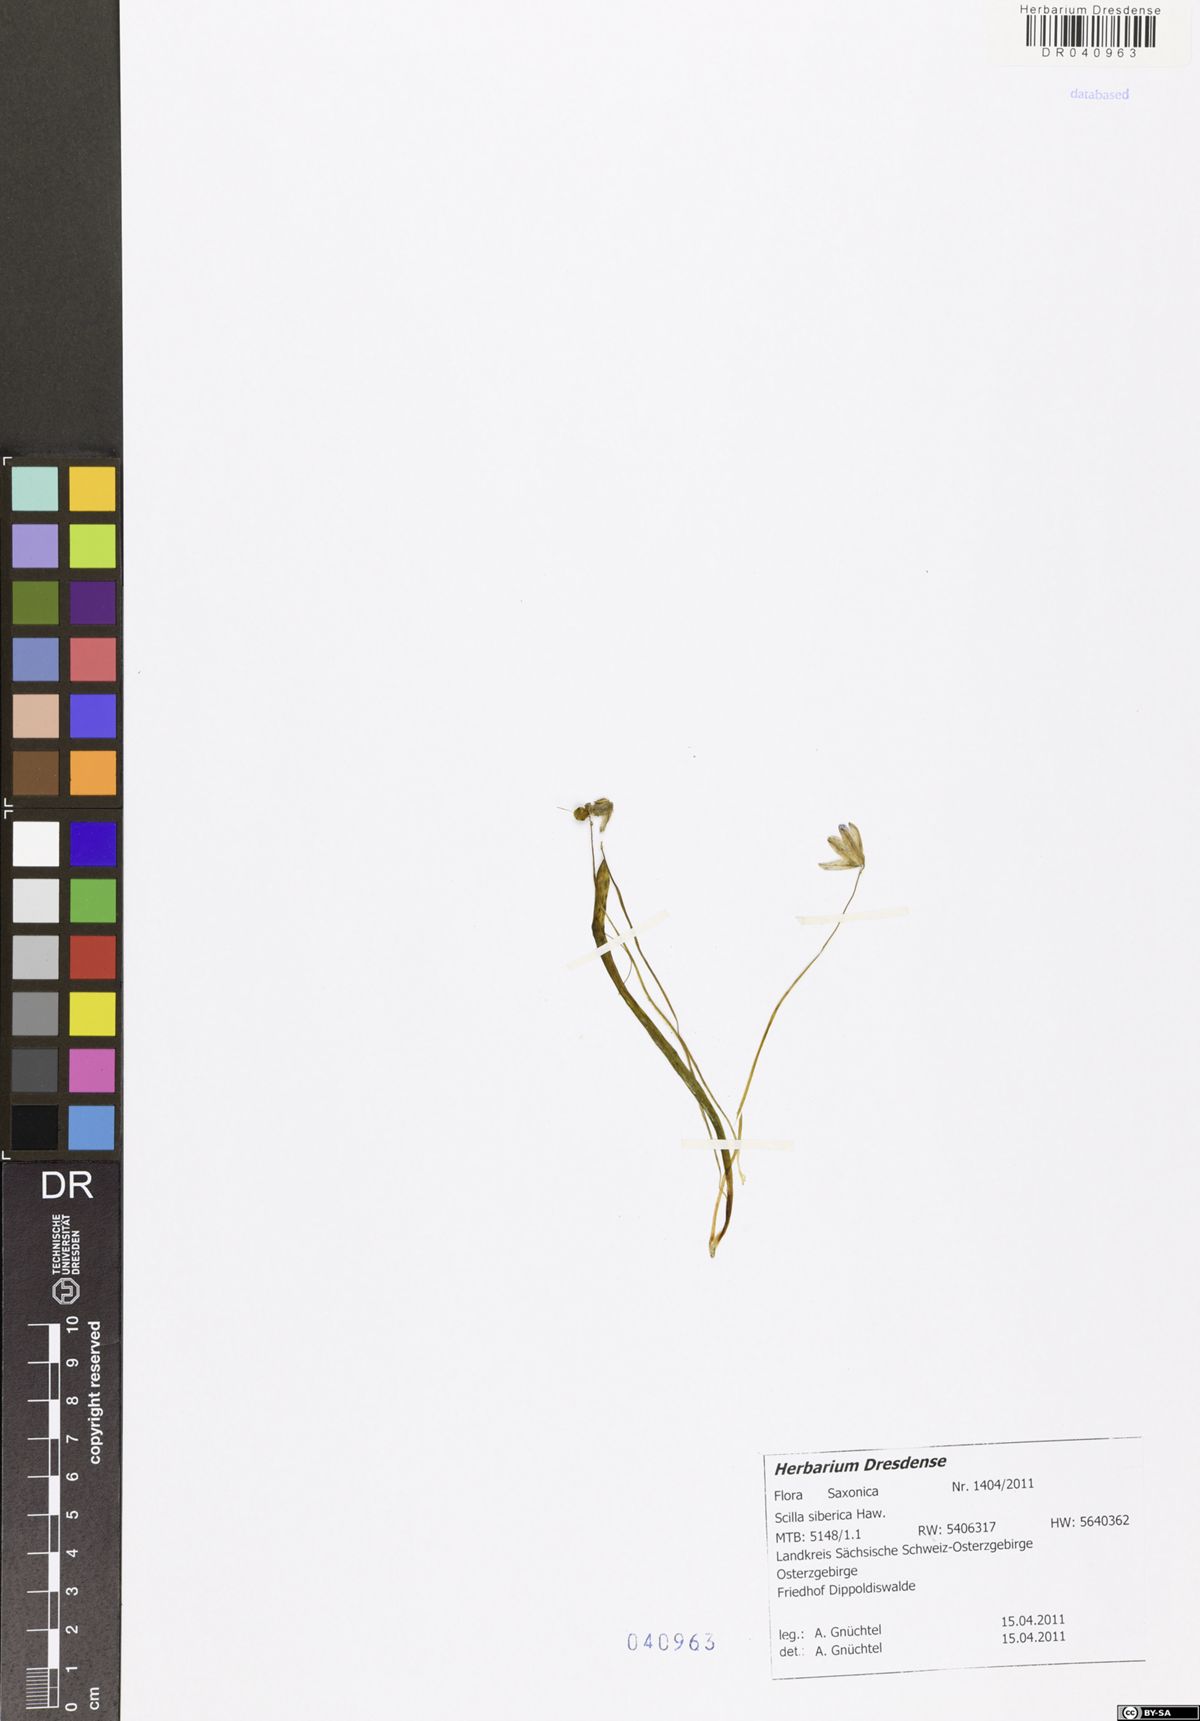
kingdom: Plantae
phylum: Tracheophyta
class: Liliopsida
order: Asparagales
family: Asparagaceae
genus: Scilla
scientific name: Scilla siberica
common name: Siberian squill
